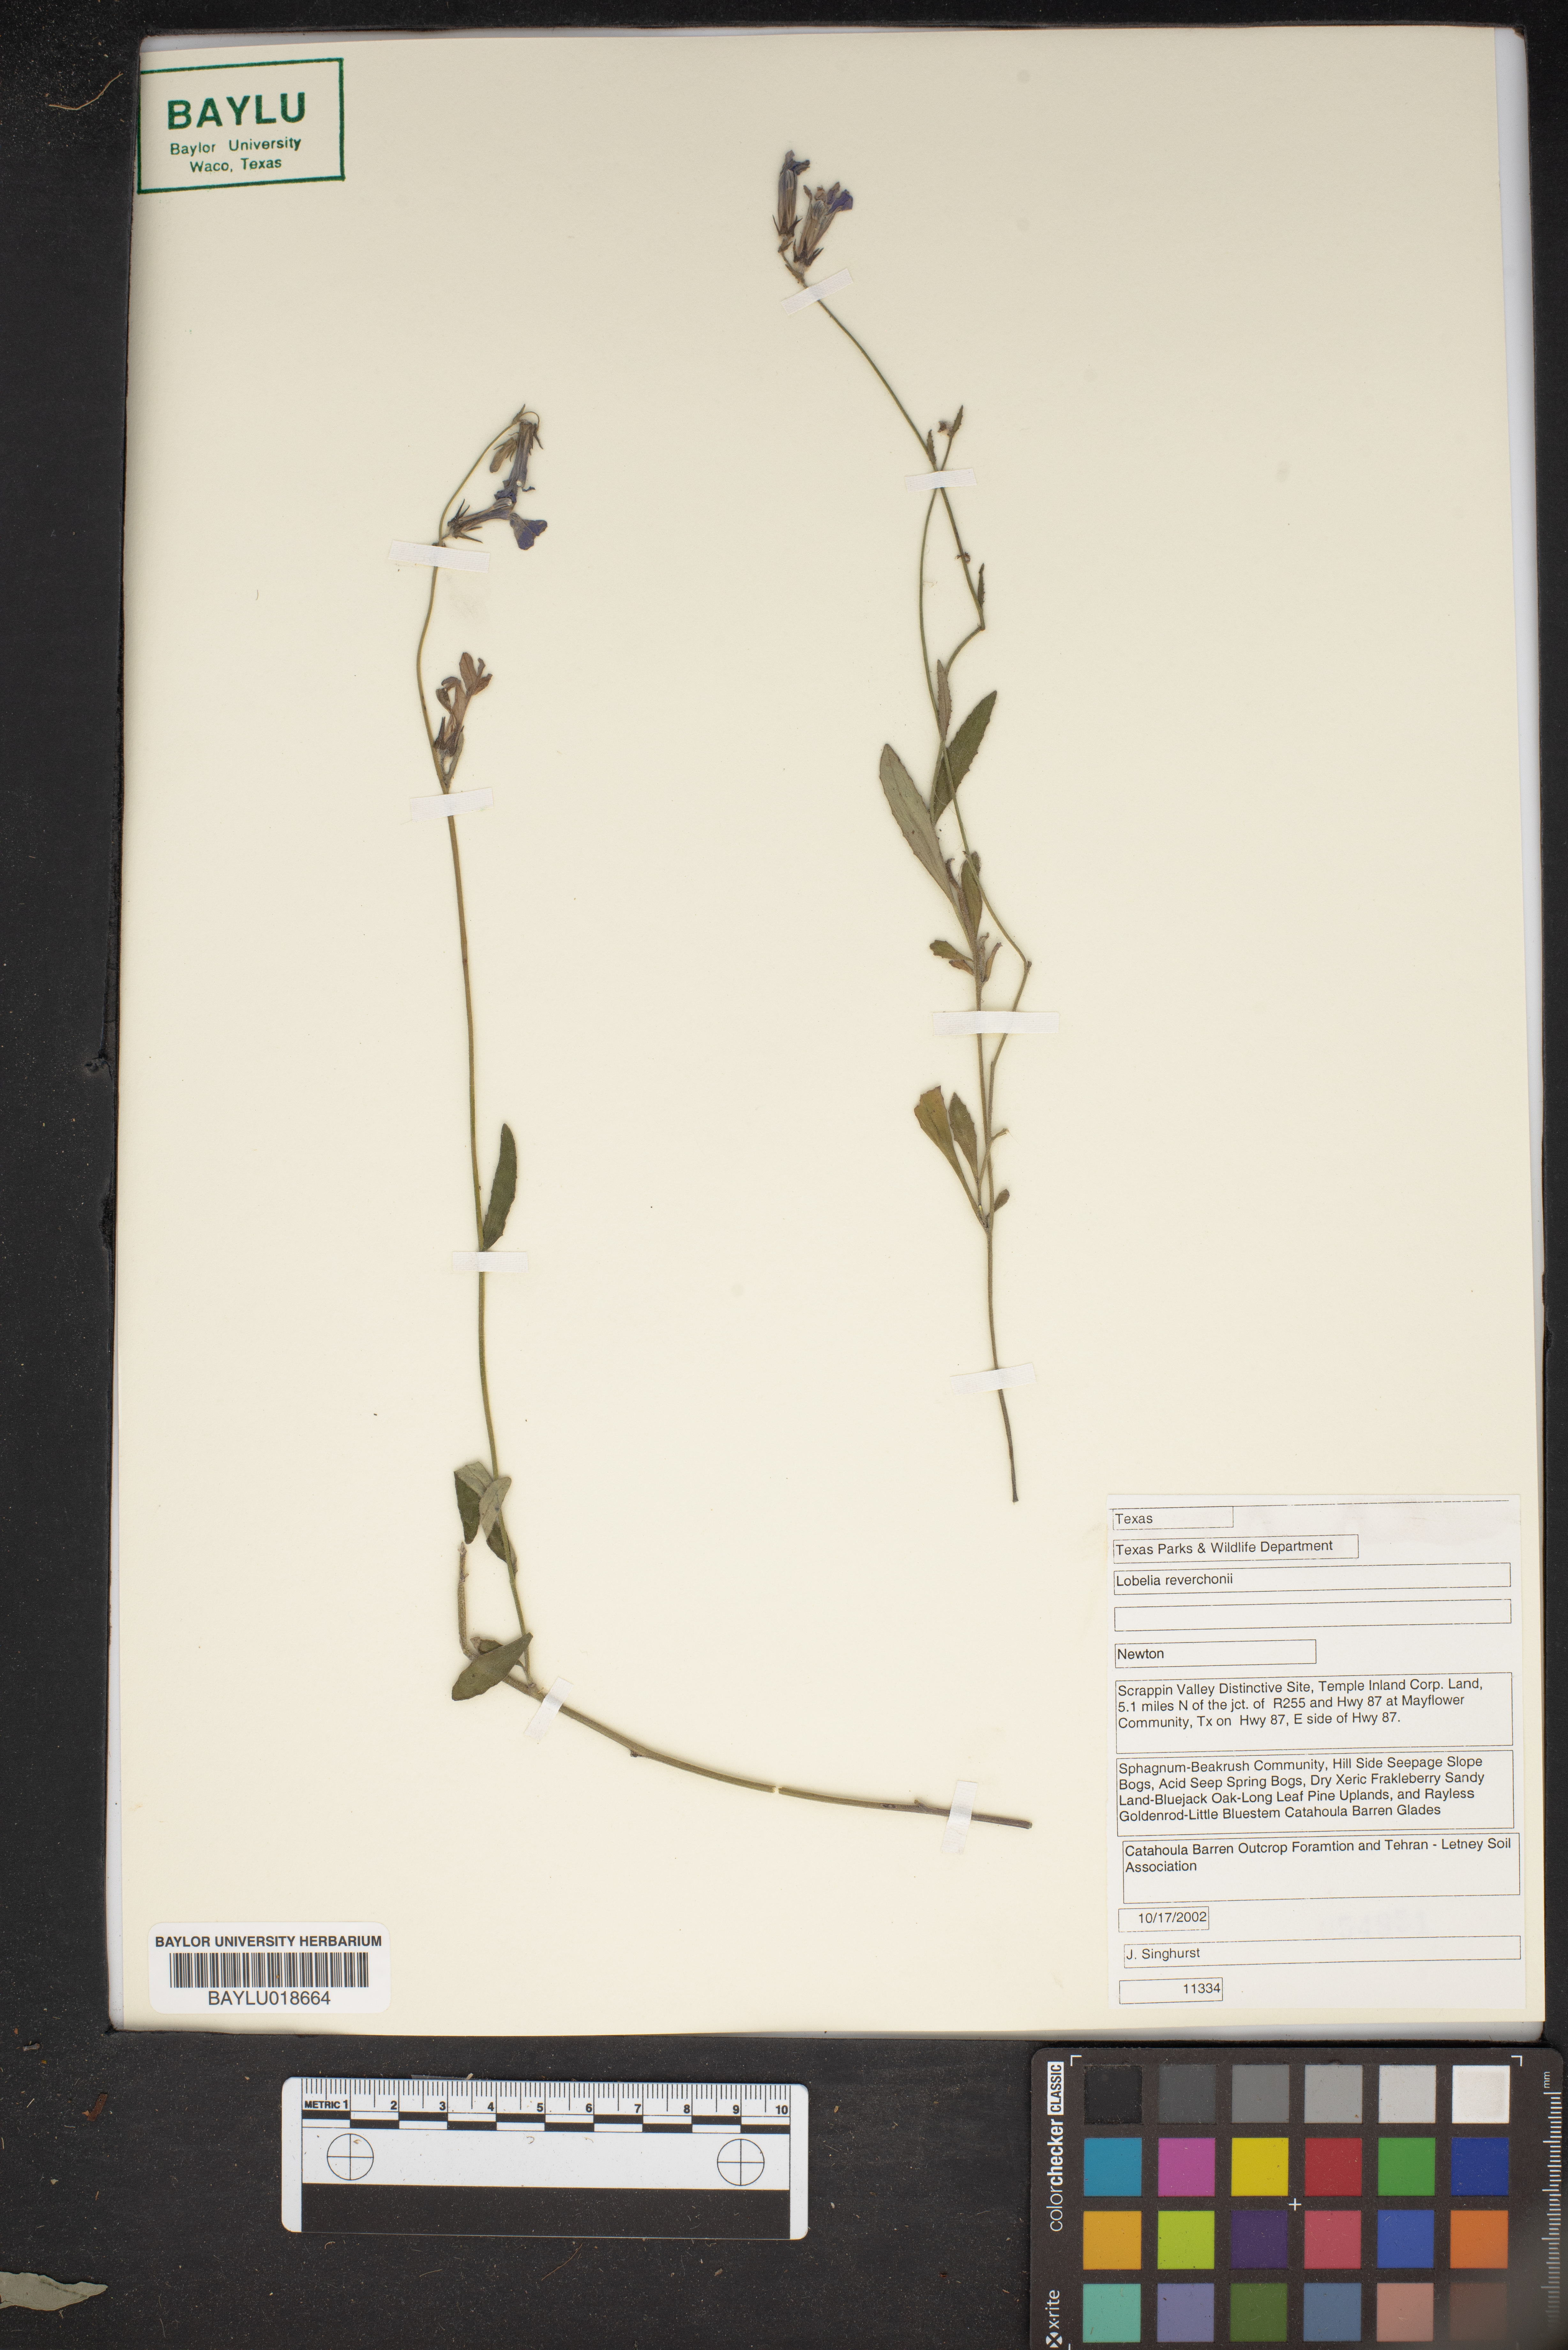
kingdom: Plantae
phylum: Tracheophyta
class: Magnoliopsida
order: Asterales
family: Campanulaceae
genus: Lobelia
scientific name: Lobelia reverchonii
